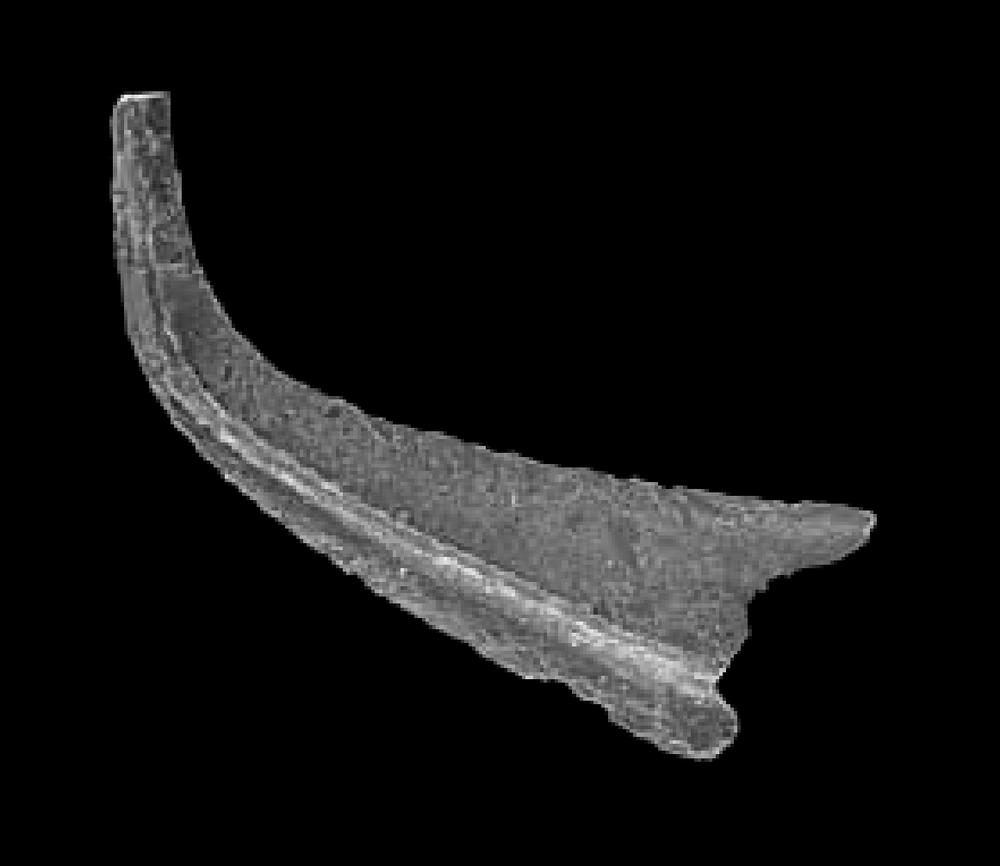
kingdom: Animalia
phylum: Chordata
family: Belodellidae
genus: Stolodus
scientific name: Stolodus Distacodus stola
